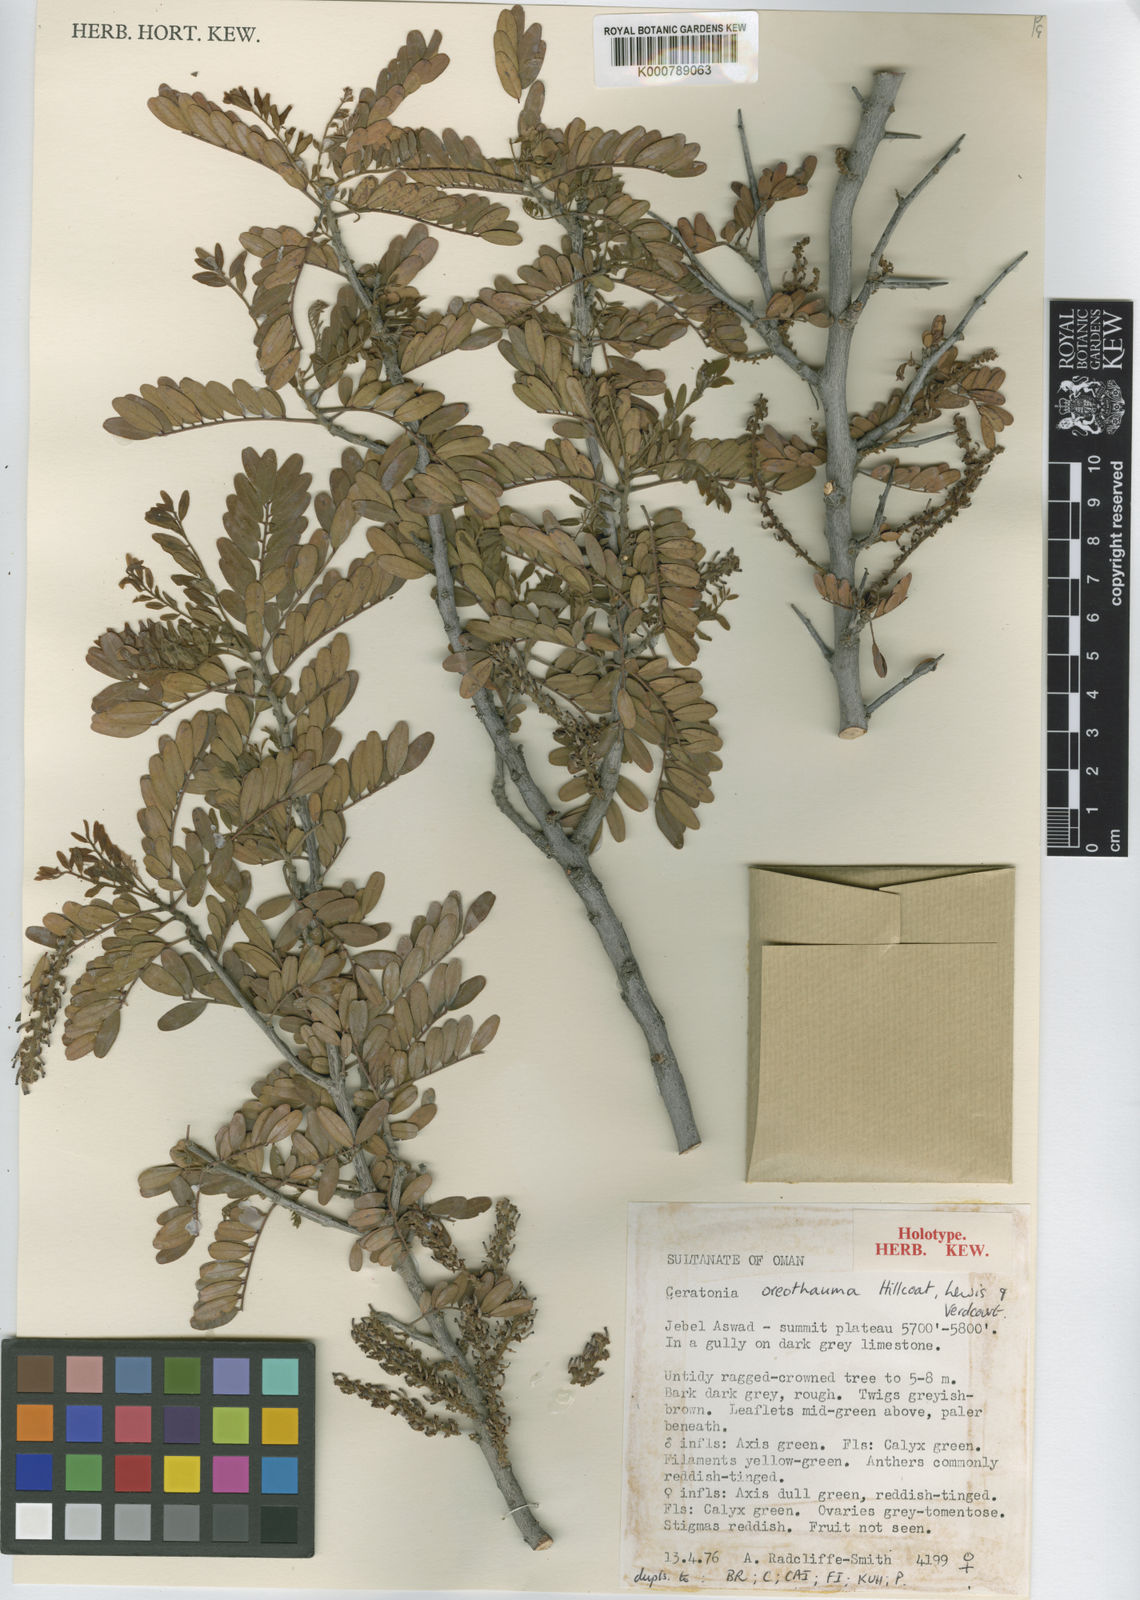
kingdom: Plantae
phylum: Tracheophyta
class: Magnoliopsida
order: Fabales
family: Fabaceae
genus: Ceratonia
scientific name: Ceratonia oreothauma
